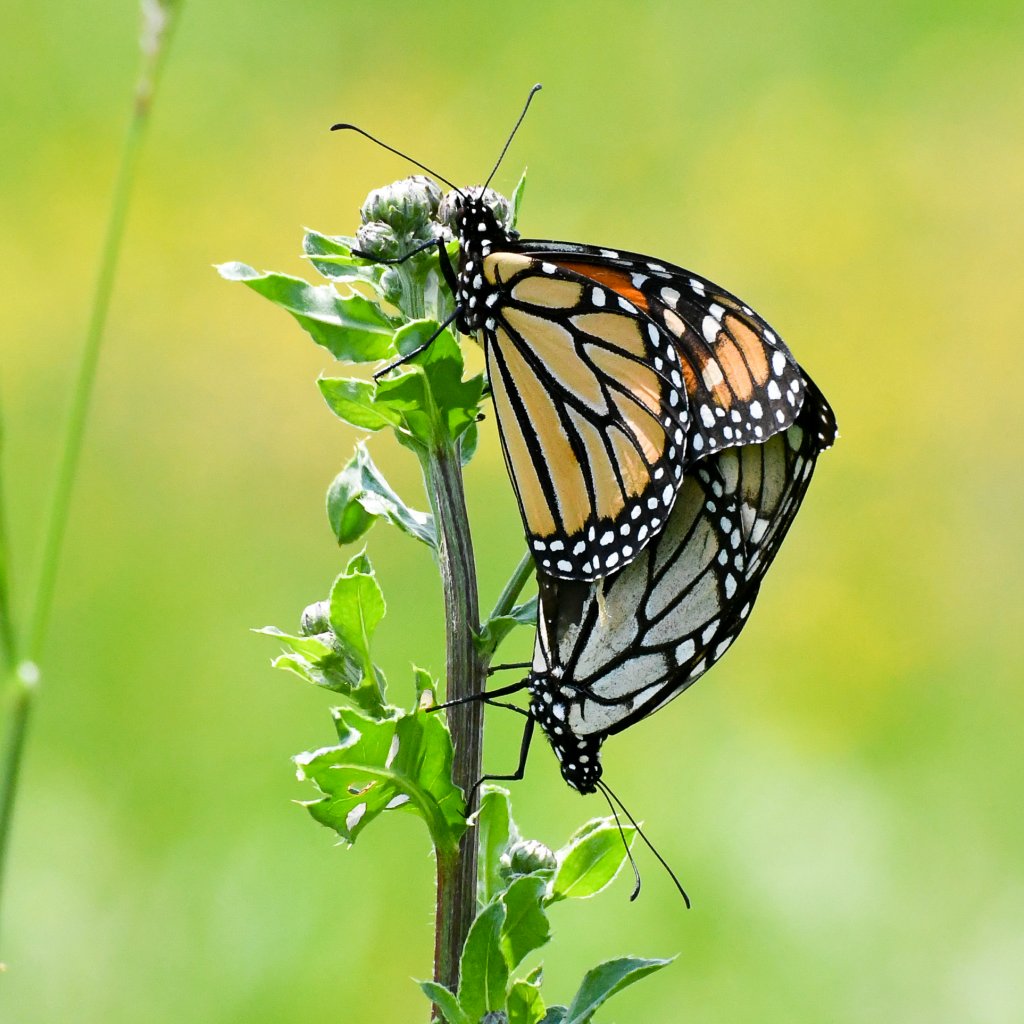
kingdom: Animalia
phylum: Arthropoda
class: Insecta
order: Lepidoptera
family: Nymphalidae
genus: Danaus
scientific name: Danaus plexippus
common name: Monarch
